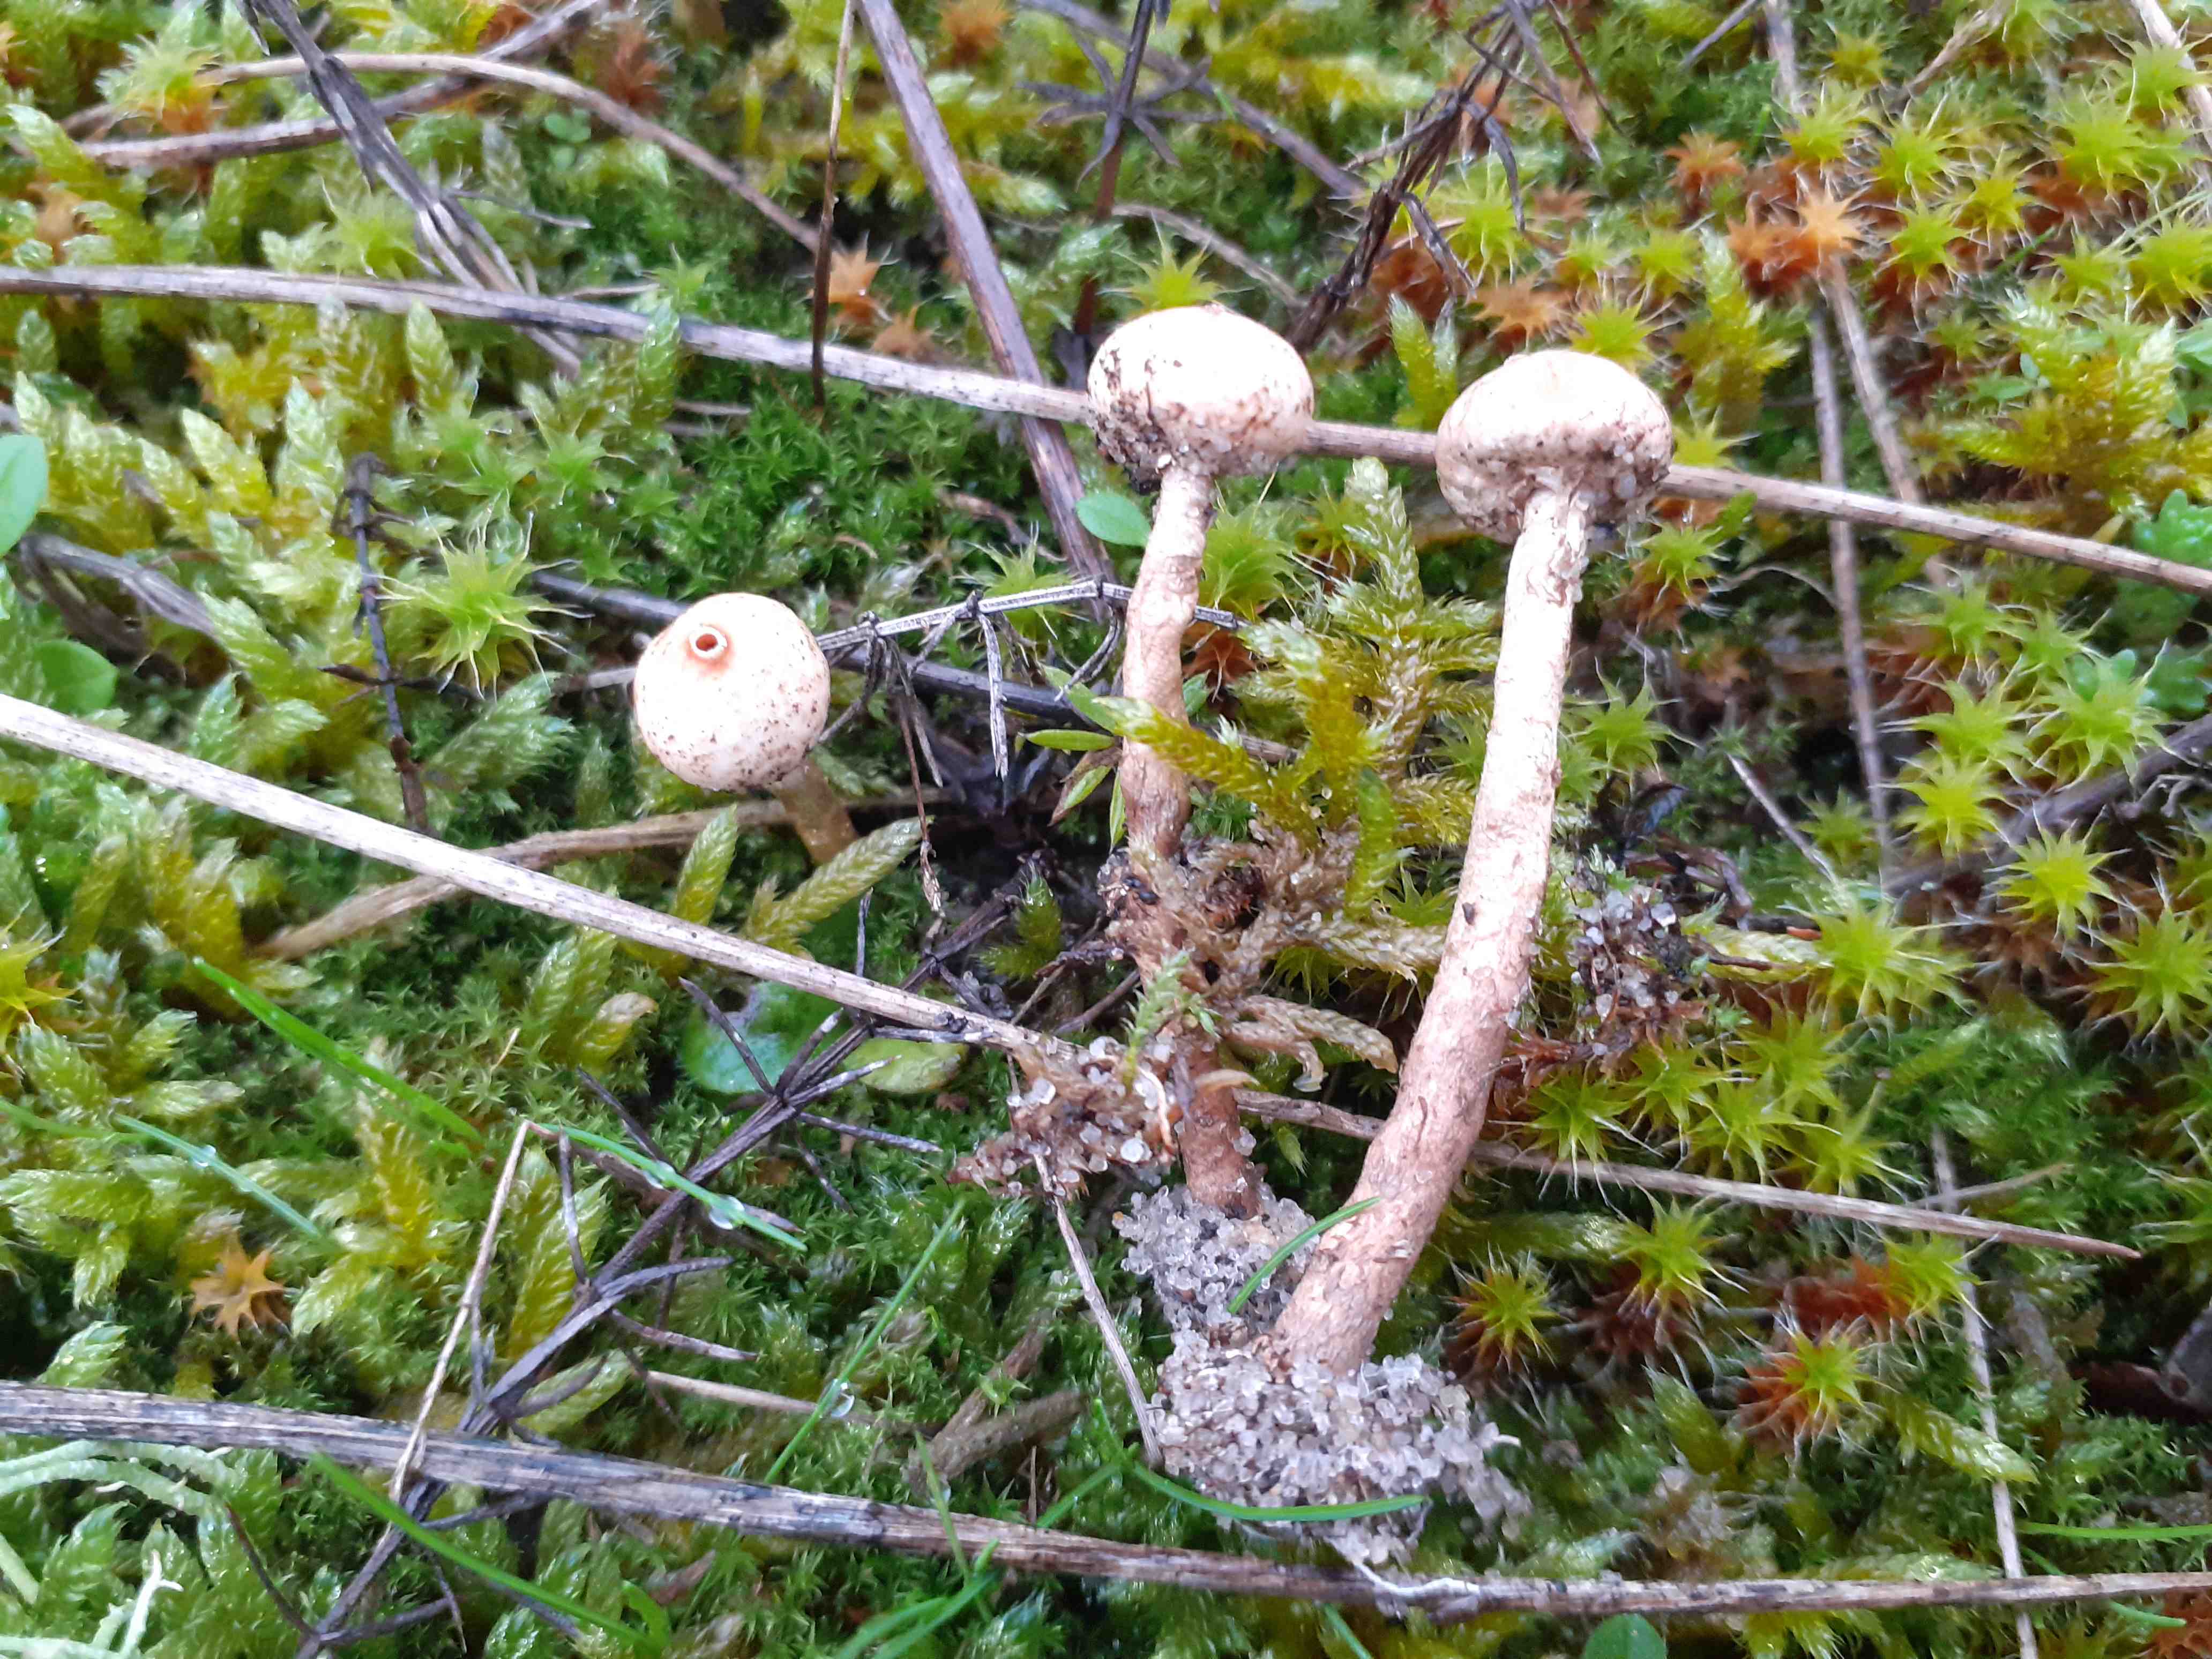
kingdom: Fungi
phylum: Basidiomycota
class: Agaricomycetes
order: Agaricales
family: Agaricaceae
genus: Tulostoma
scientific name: Tulostoma brumale
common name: vinter-stilkbovist
